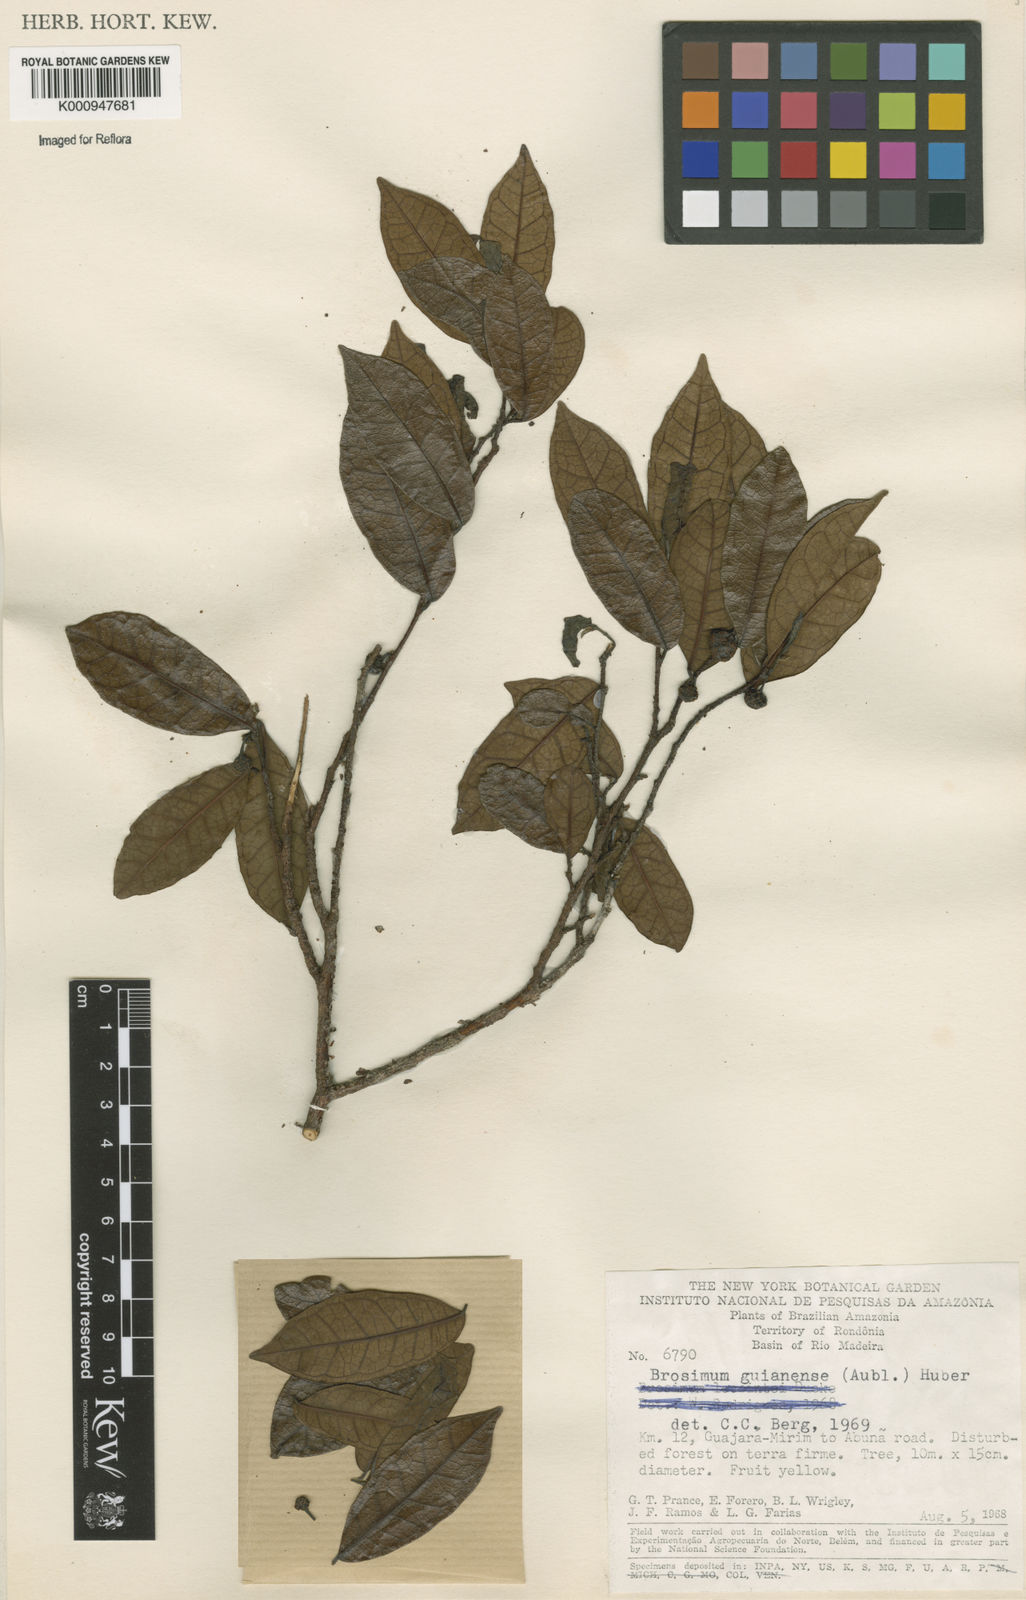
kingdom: Plantae
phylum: Tracheophyta
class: Magnoliopsida
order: Rosales
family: Moraceae
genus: Brosimum
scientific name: Brosimum
